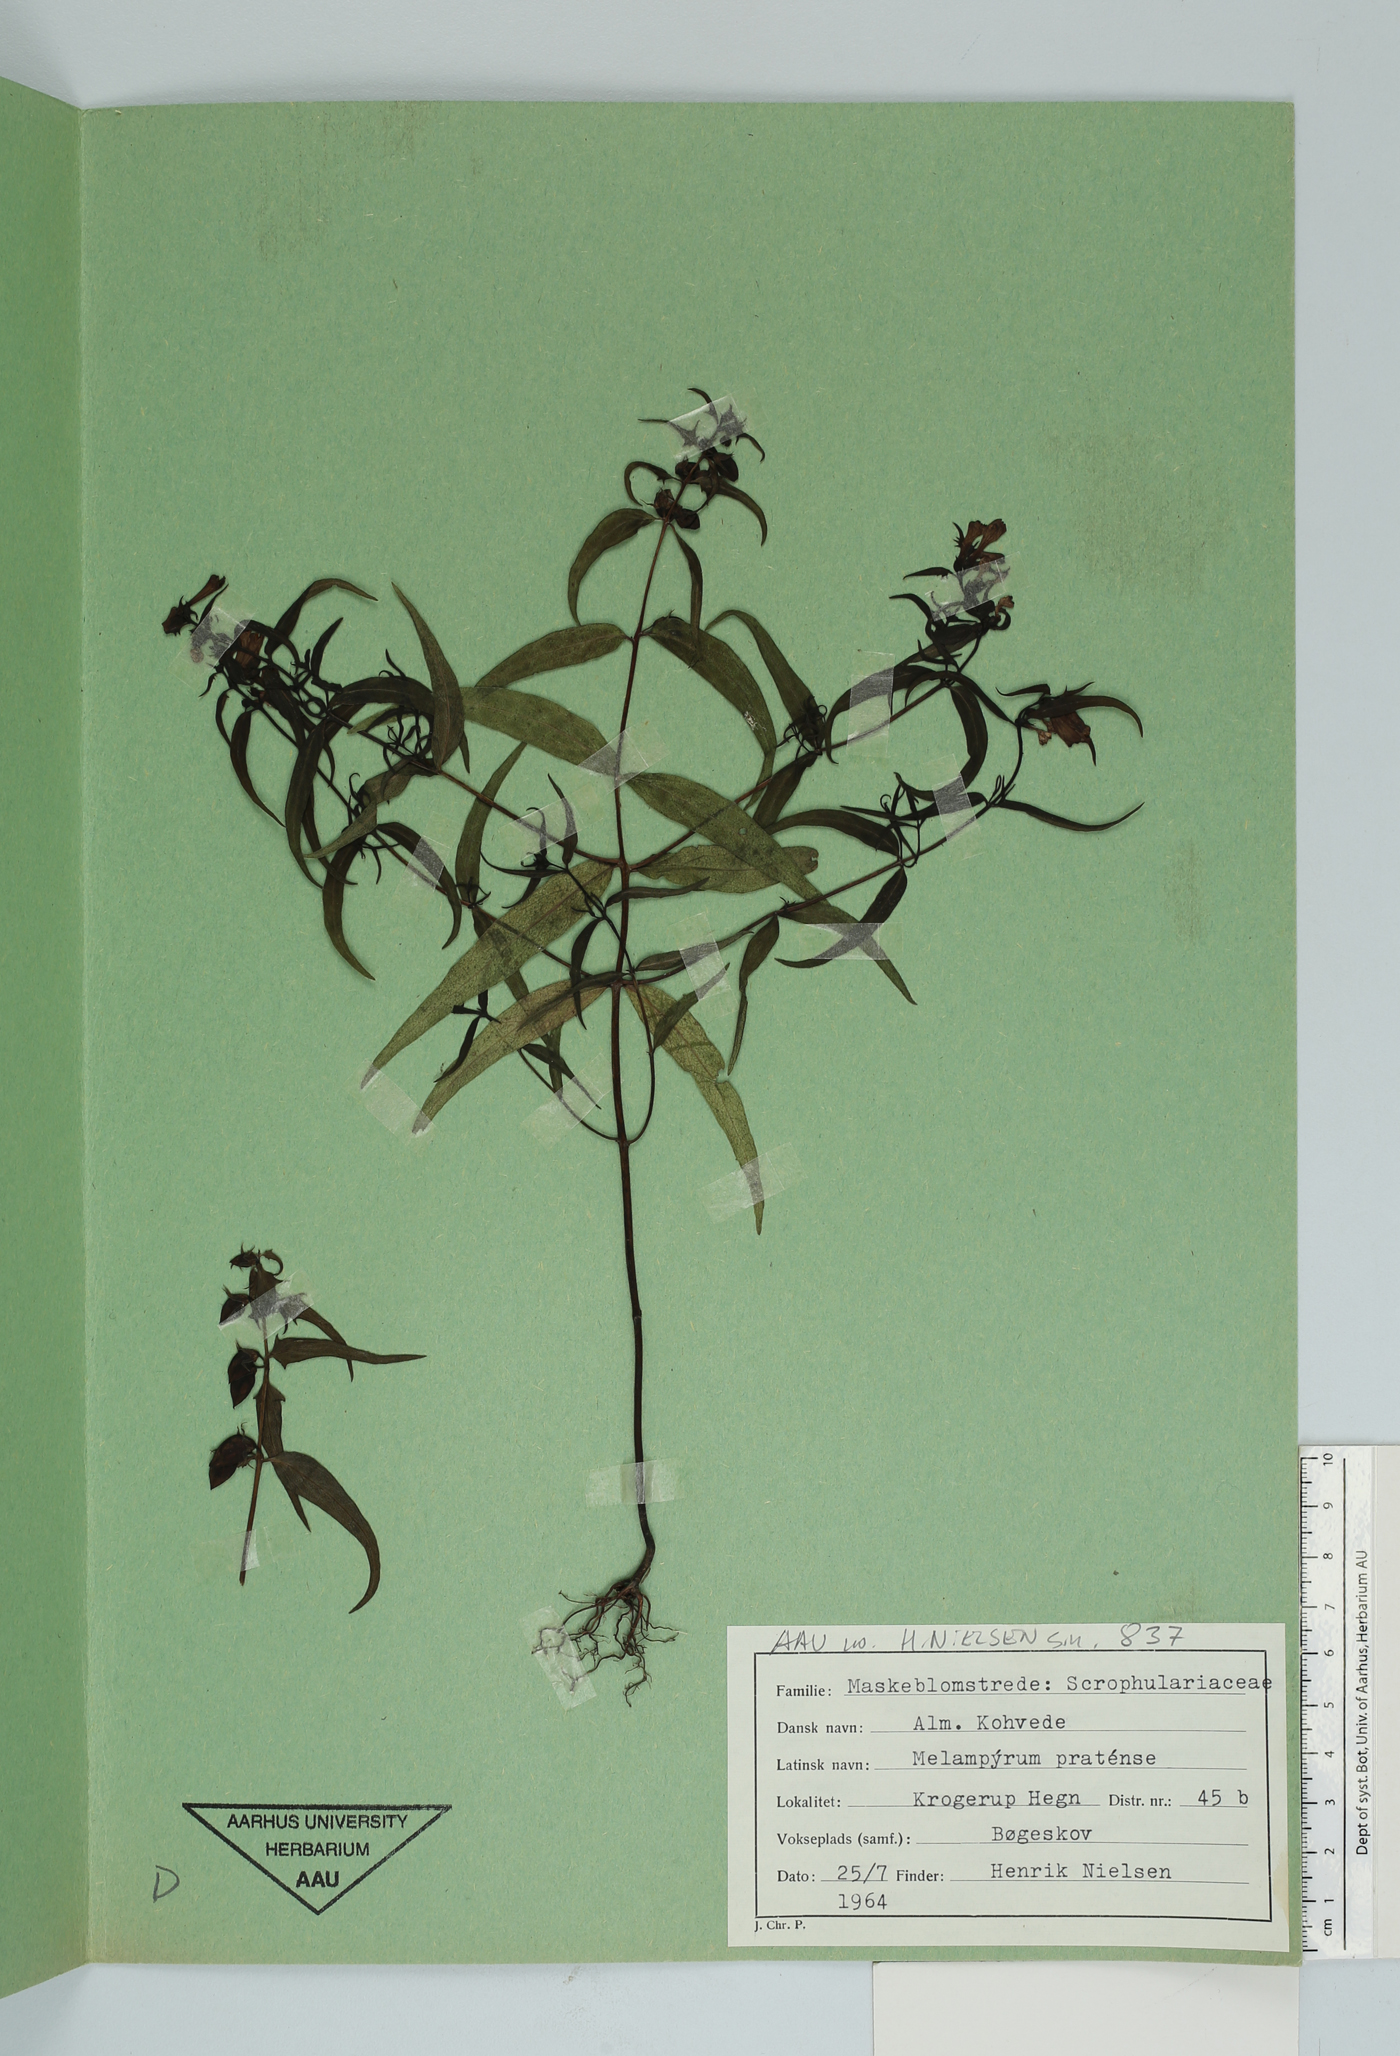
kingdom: Plantae
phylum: Tracheophyta
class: Magnoliopsida
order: Lamiales
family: Orobanchaceae
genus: Melampyrum
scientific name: Melampyrum pratense
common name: Common cow-wheat
